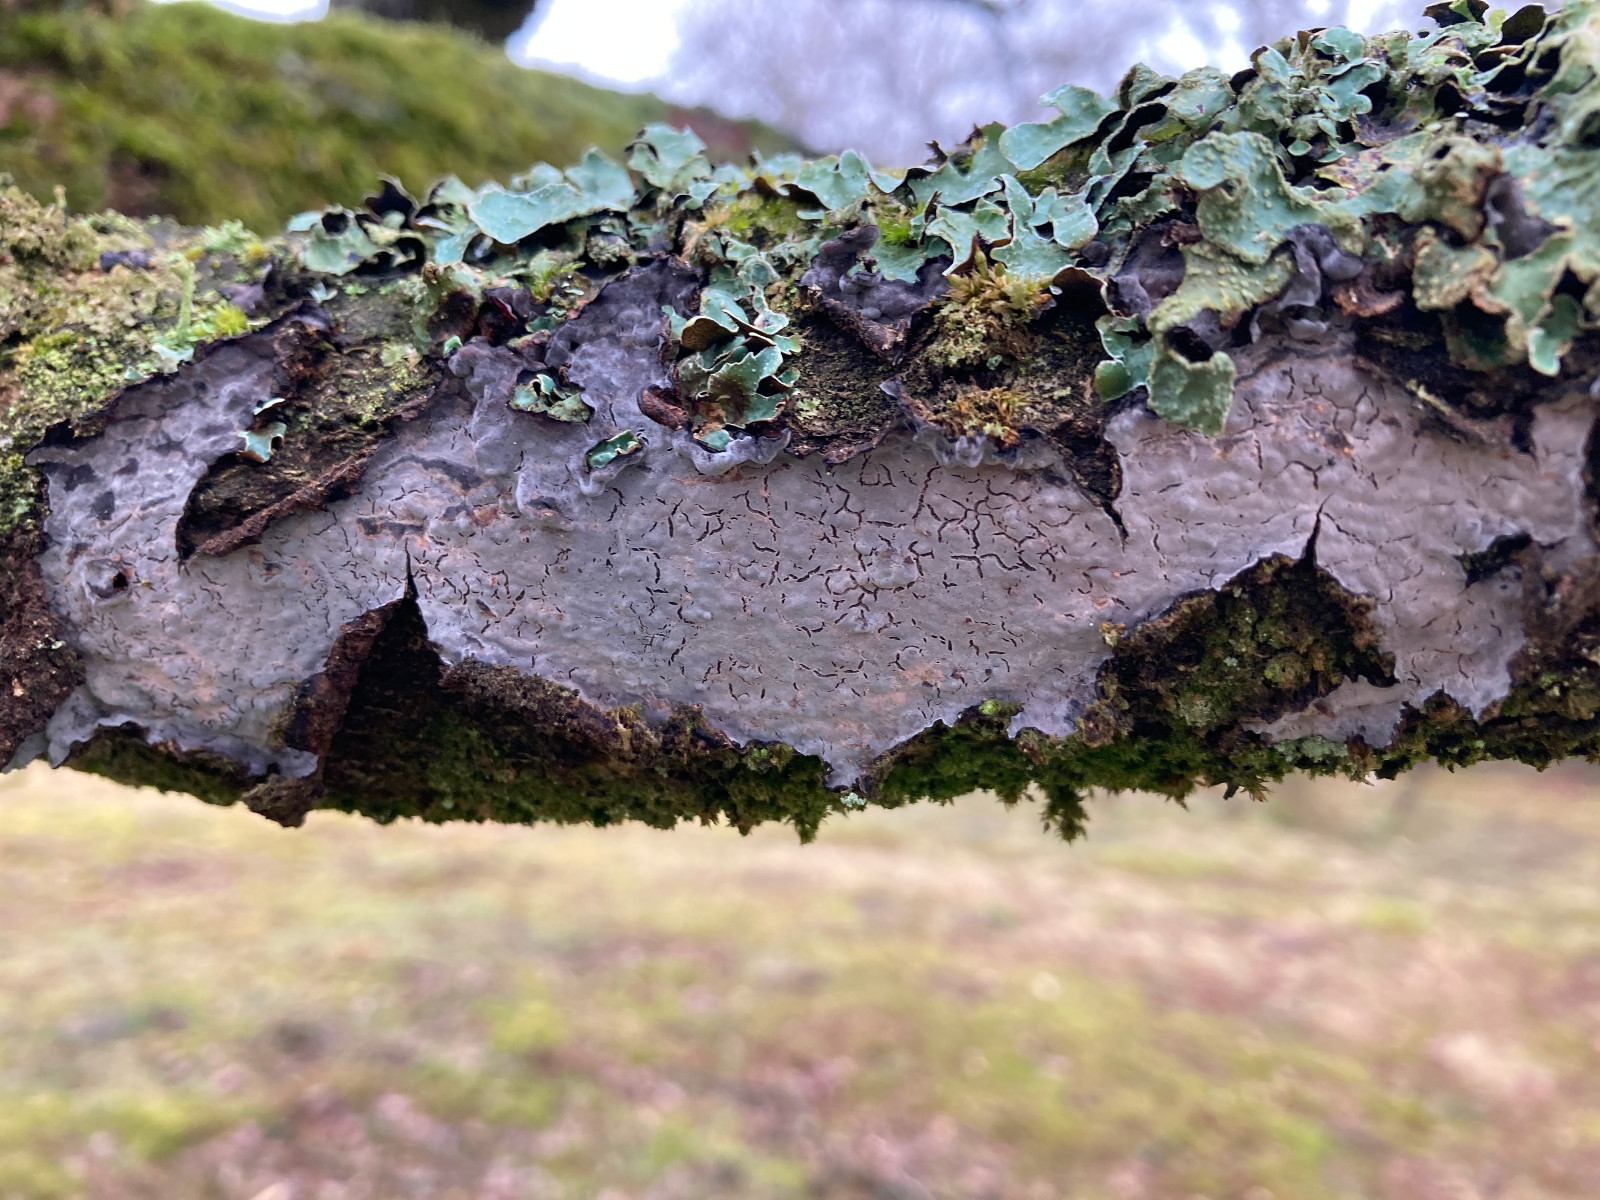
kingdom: Fungi
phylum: Basidiomycota
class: Agaricomycetes
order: Russulales
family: Peniophoraceae
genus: Peniophora
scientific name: Peniophora quercina
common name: ege-voksskind
